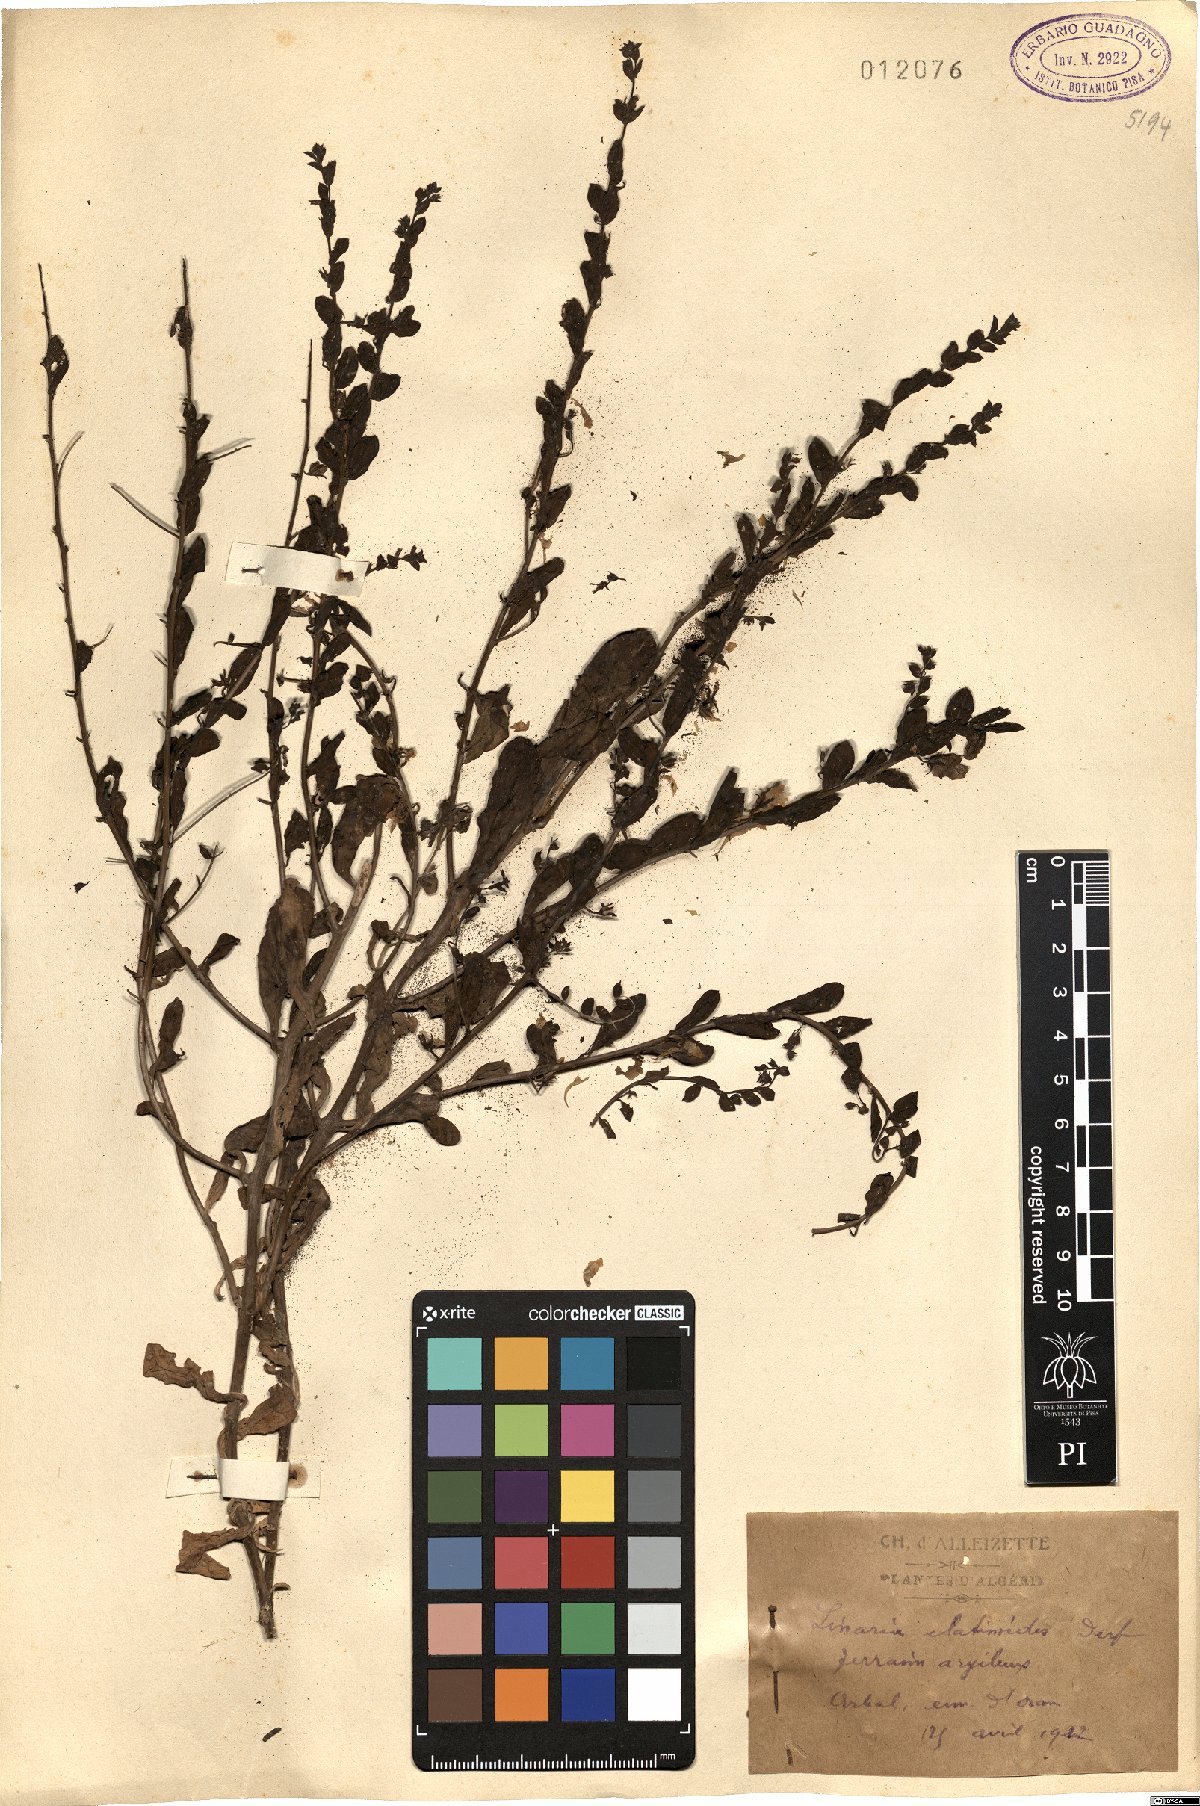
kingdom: Plantae
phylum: Tracheophyta
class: Magnoliopsida
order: Lamiales
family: Plantaginaceae
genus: Kickxia
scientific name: Kickxia elatinoides
